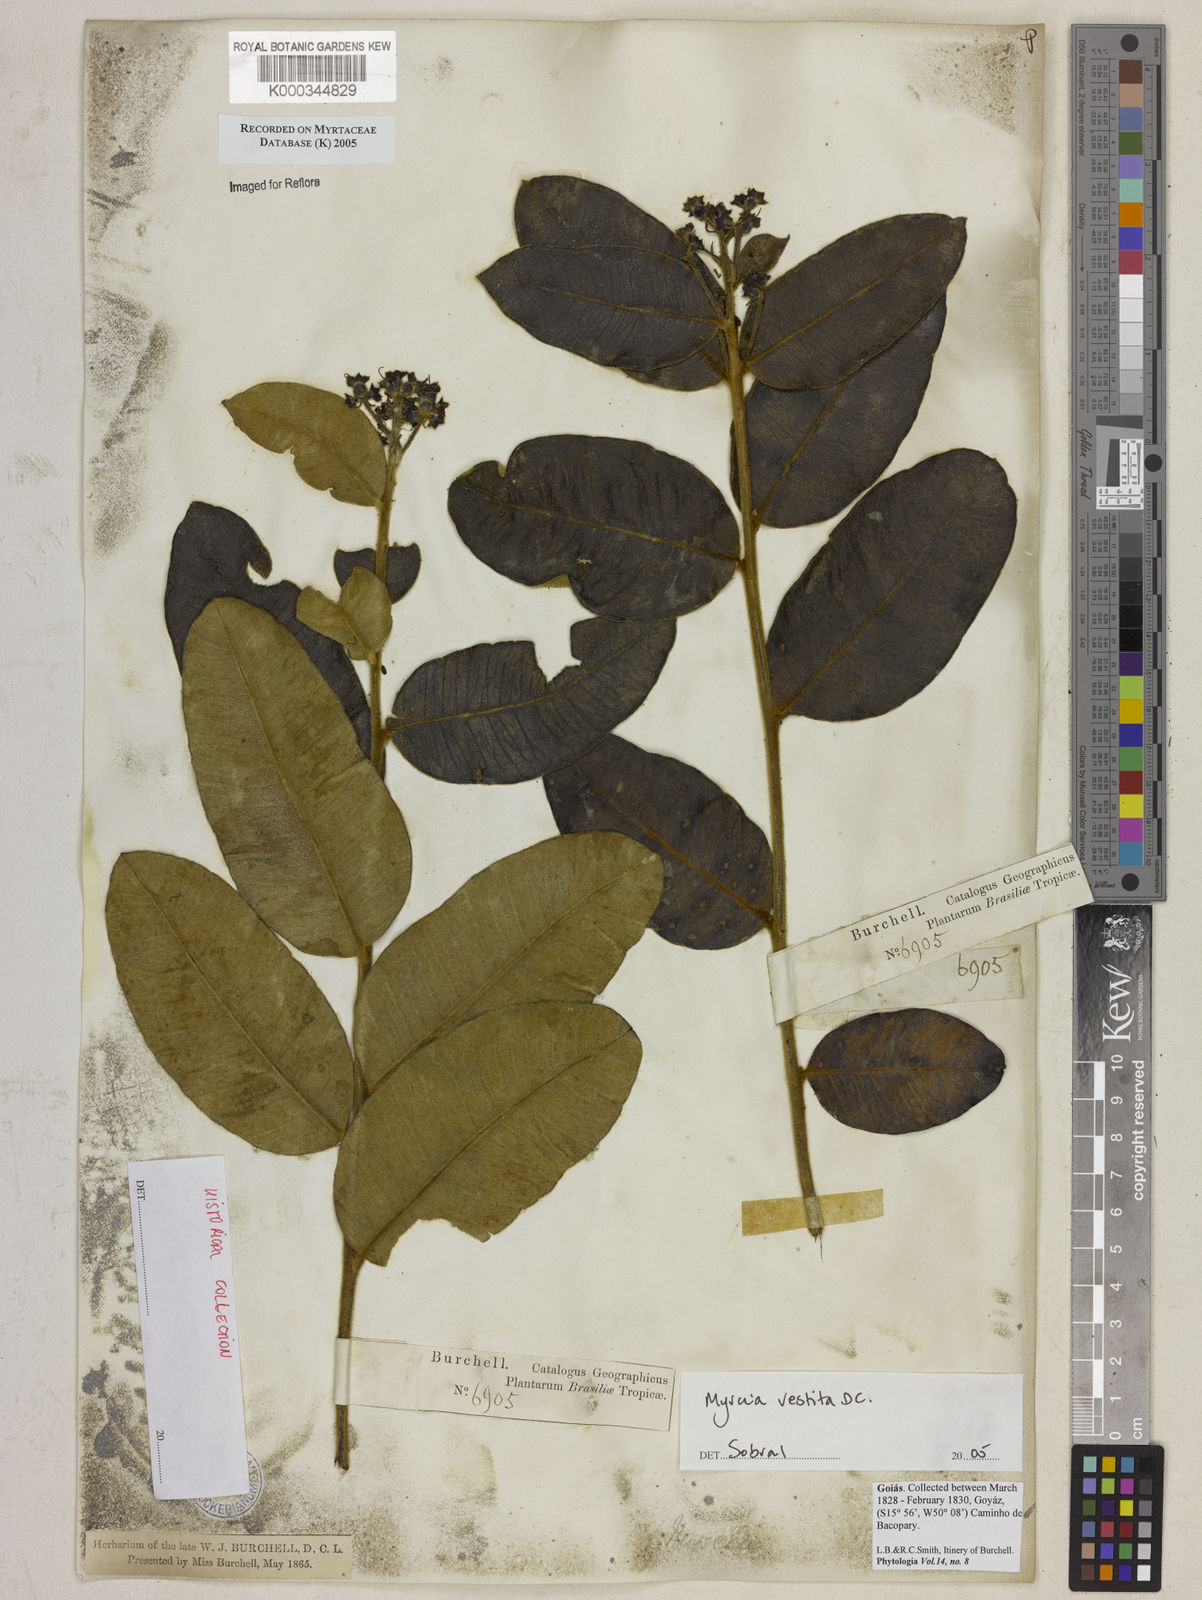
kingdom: Plantae
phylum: Tracheophyta
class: Magnoliopsida
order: Myrtales
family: Myrtaceae
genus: Myrcia
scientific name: Myrcia vestita
